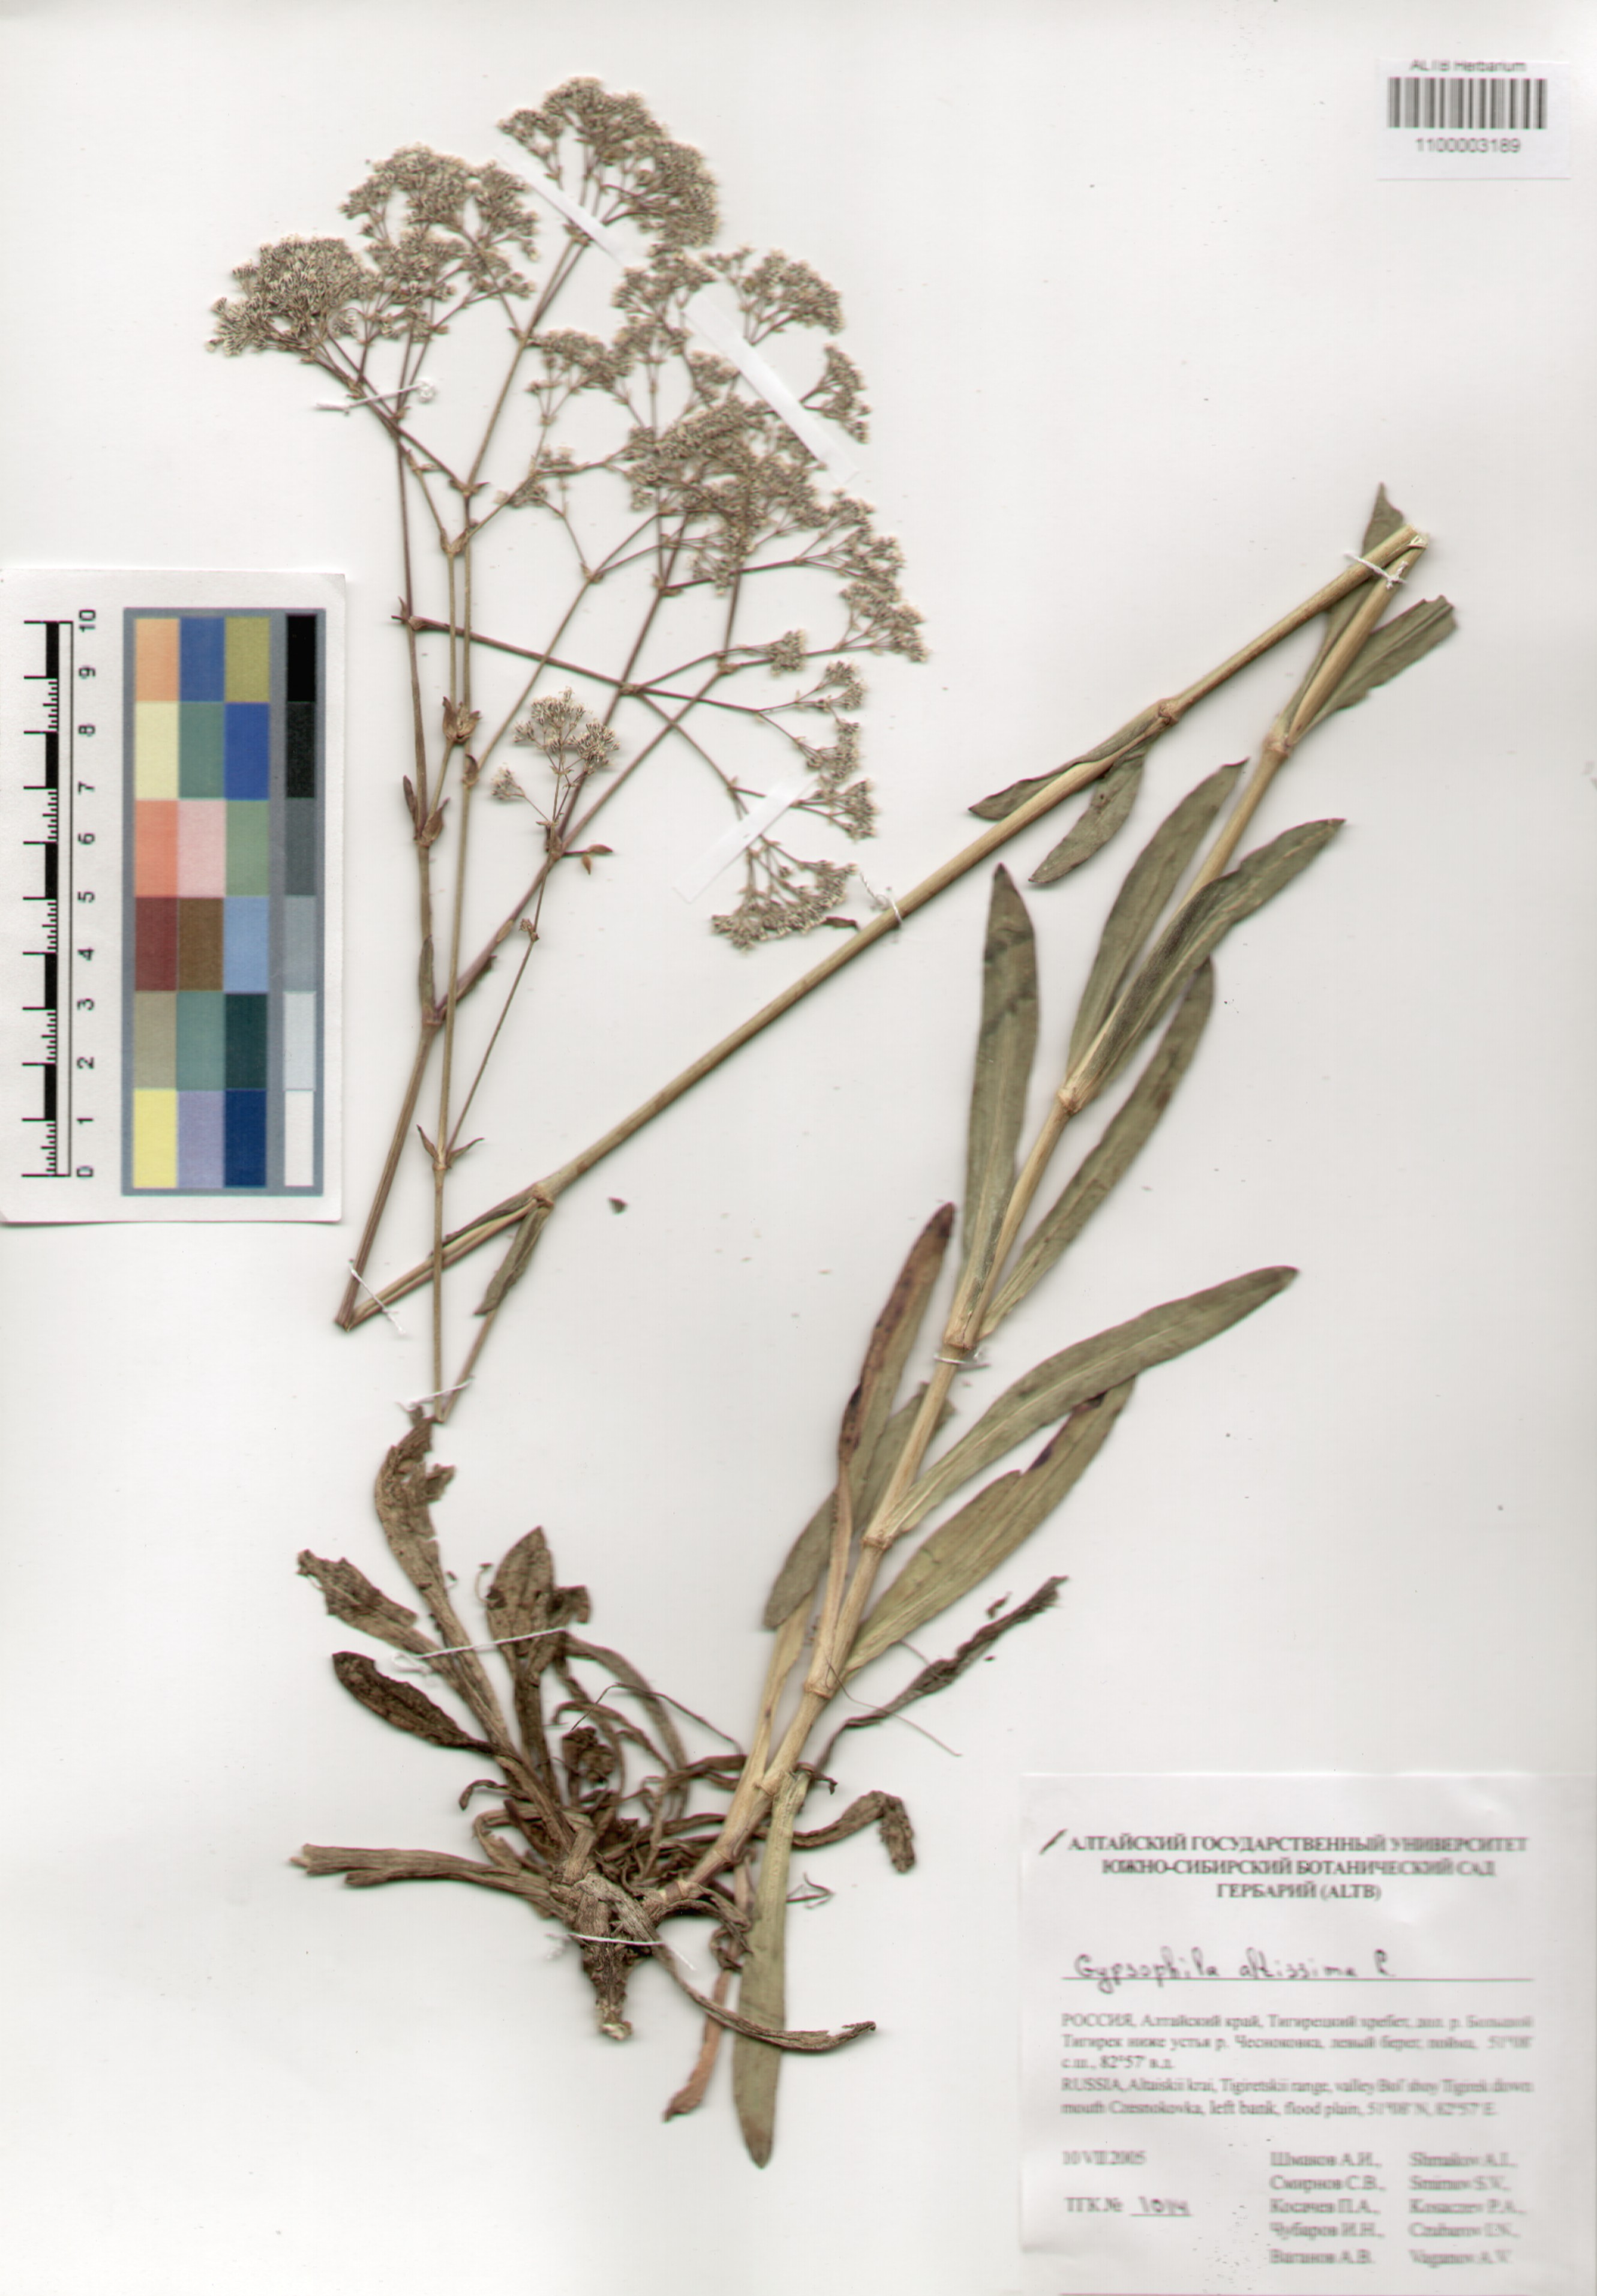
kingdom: Plantae
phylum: Tracheophyta
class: Magnoliopsida
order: Caryophyllales
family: Caryophyllaceae
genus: Gypsophila
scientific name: Gypsophila altissima
